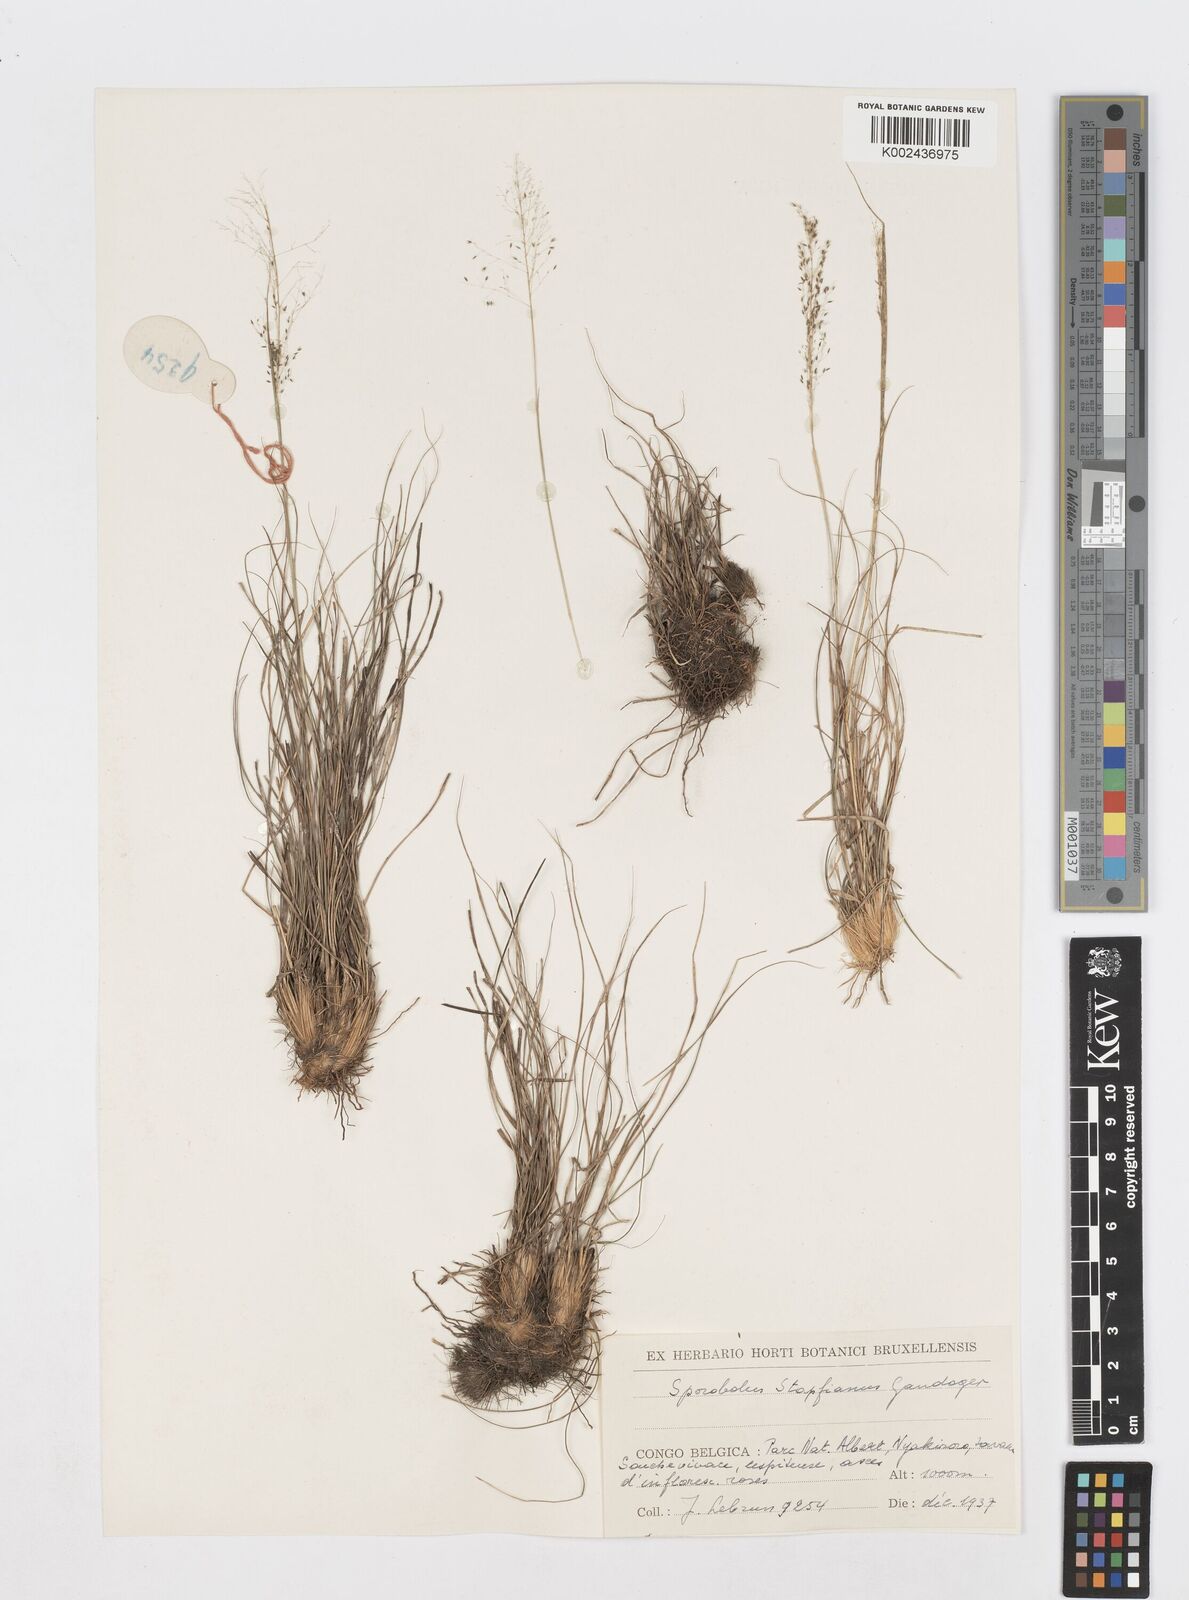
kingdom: Plantae
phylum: Tracheophyta
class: Liliopsida
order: Poales
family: Poaceae
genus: Sporobolus
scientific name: Sporobolus stapfianus
